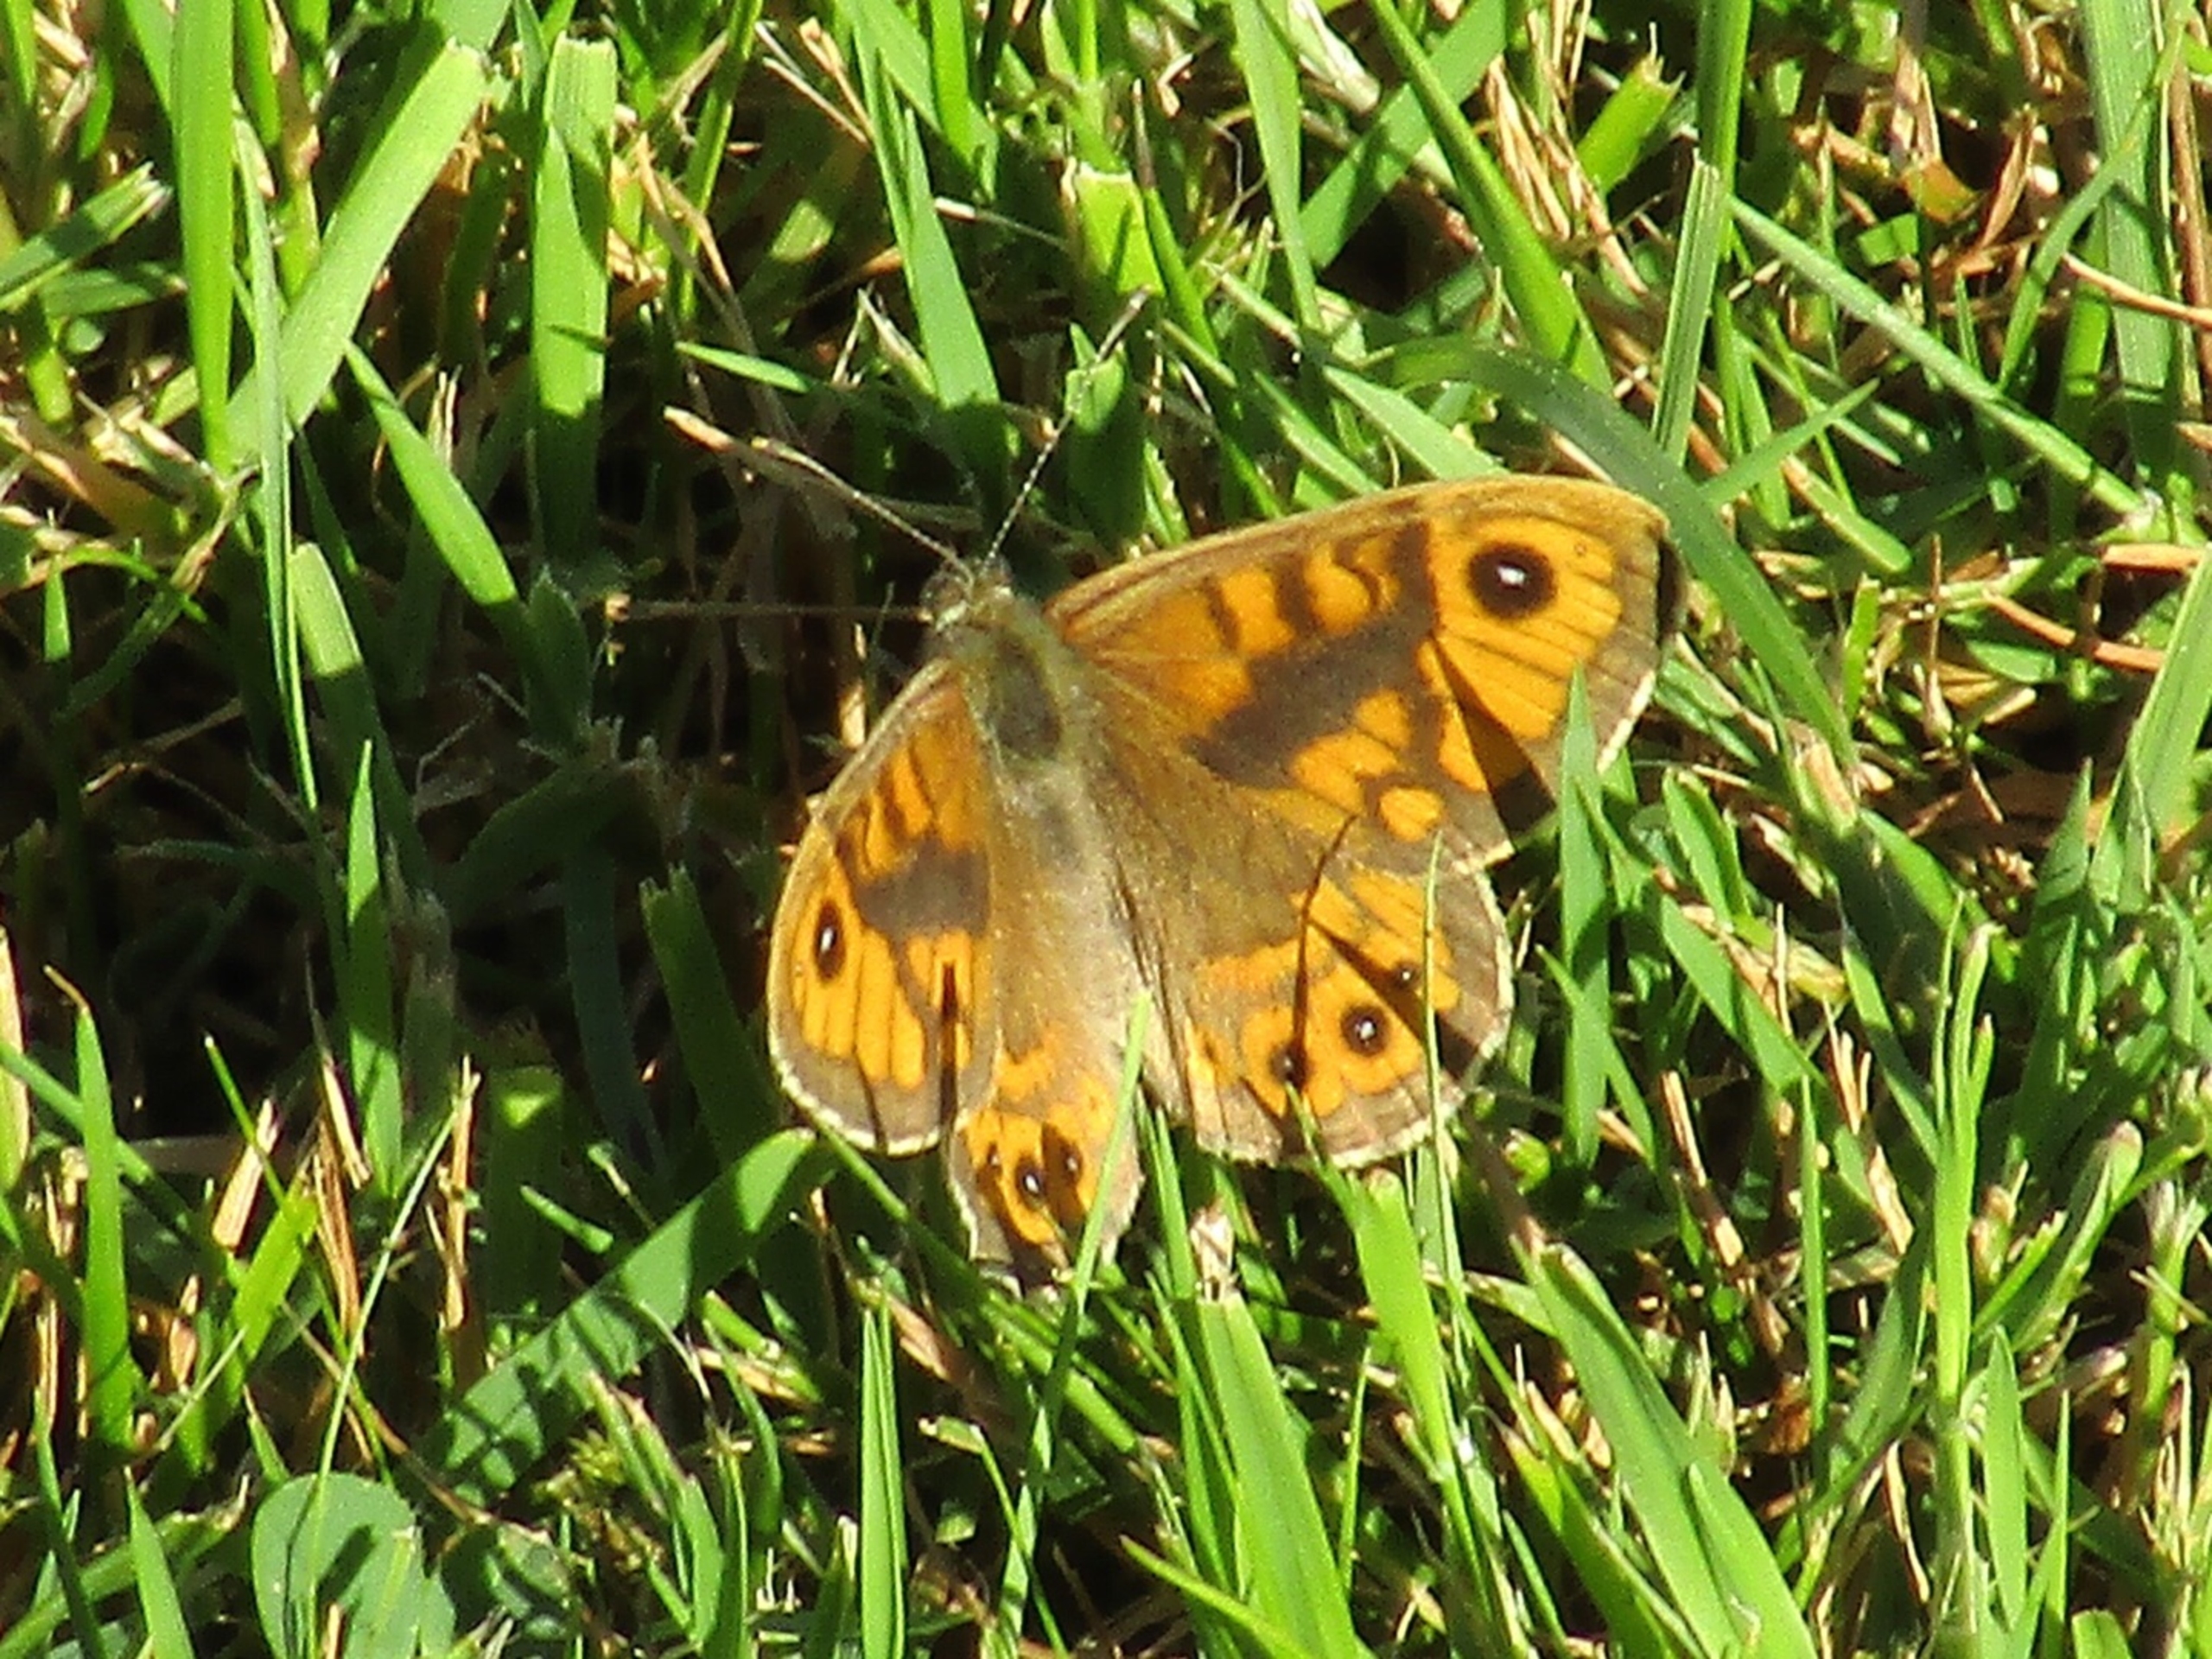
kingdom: Animalia
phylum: Arthropoda
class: Insecta
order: Lepidoptera
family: Nymphalidae
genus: Pararge
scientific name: Pararge Lasiommata megera
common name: Vejrandøje
